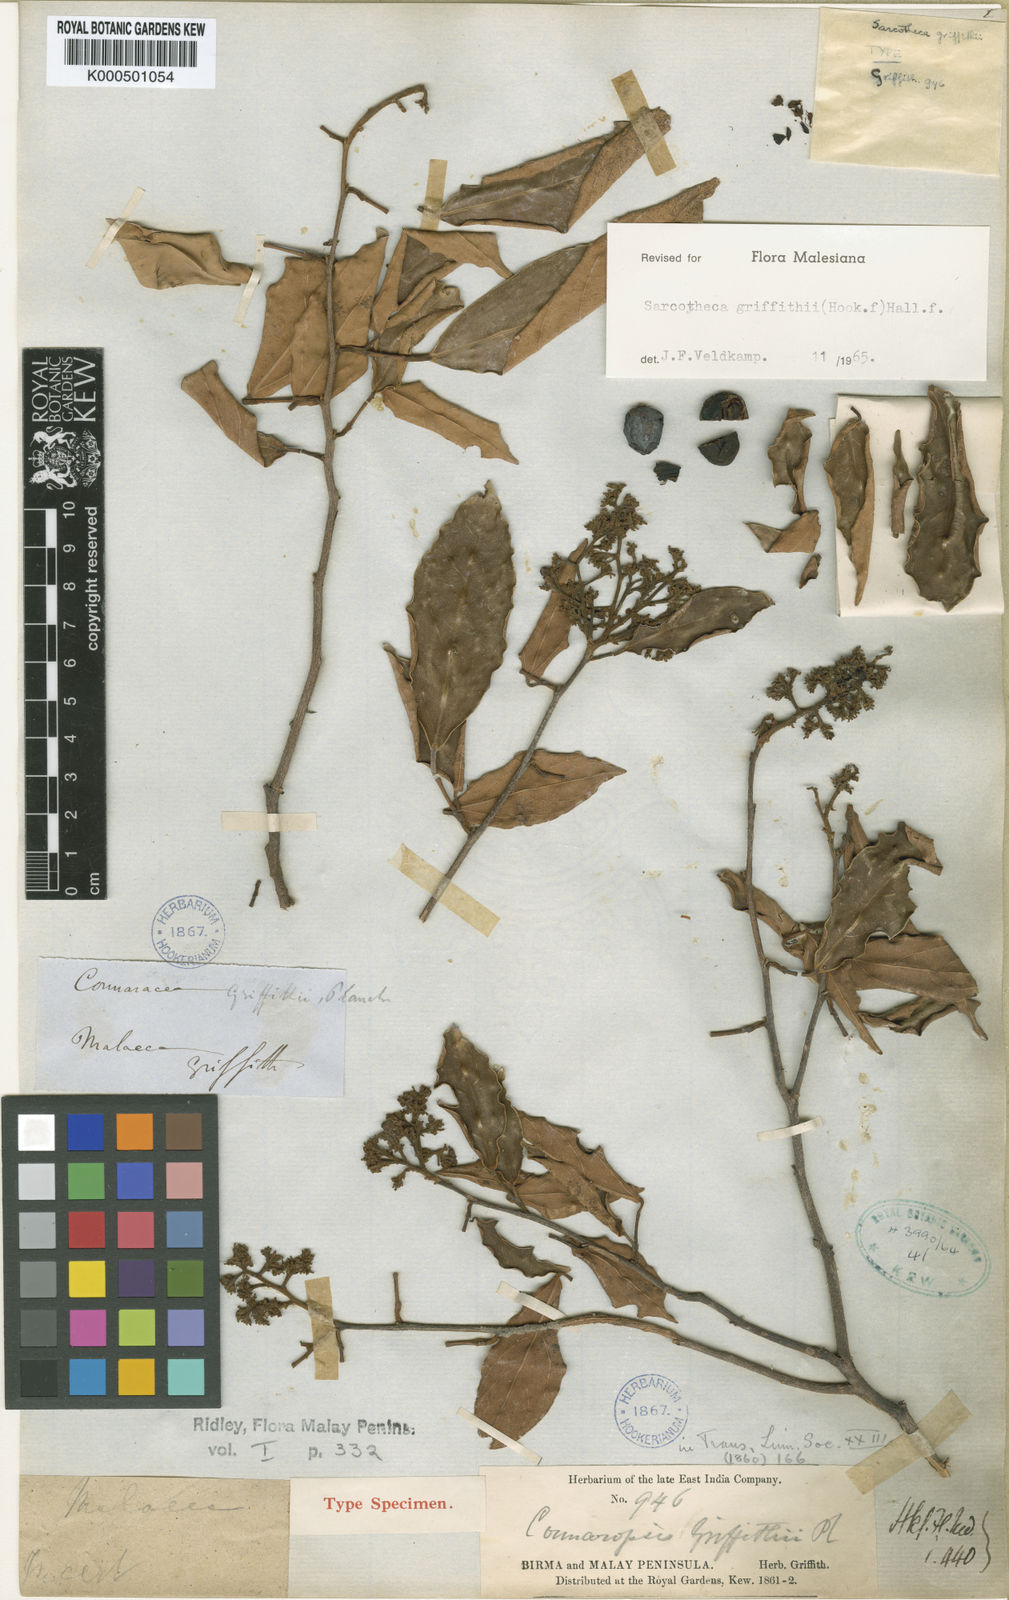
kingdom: Plantae
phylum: Tracheophyta
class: Magnoliopsida
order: Oxalidales
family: Oxalidaceae
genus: Sarcotheca
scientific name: Sarcotheca griffithii
